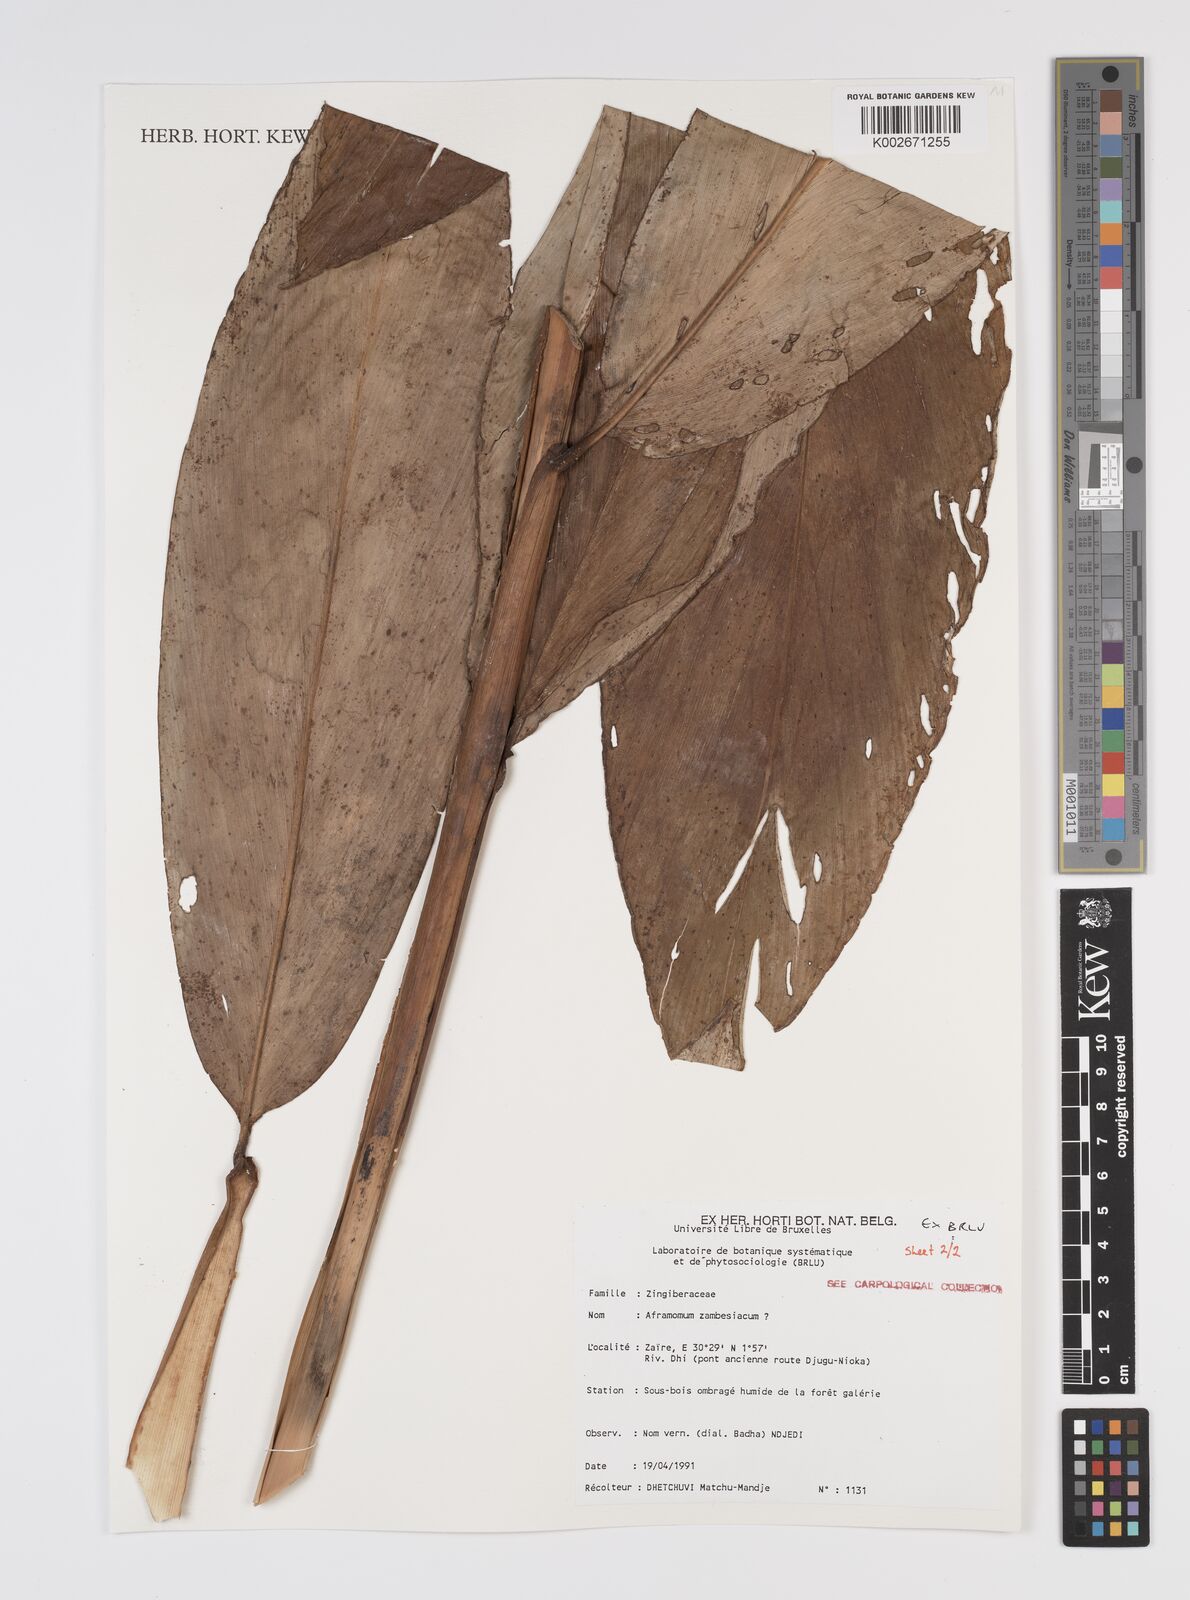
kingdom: Plantae
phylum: Tracheophyta
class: Liliopsida
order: Zingiberales
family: Zingiberaceae
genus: Aframomum
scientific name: Aframomum zambesiacum
